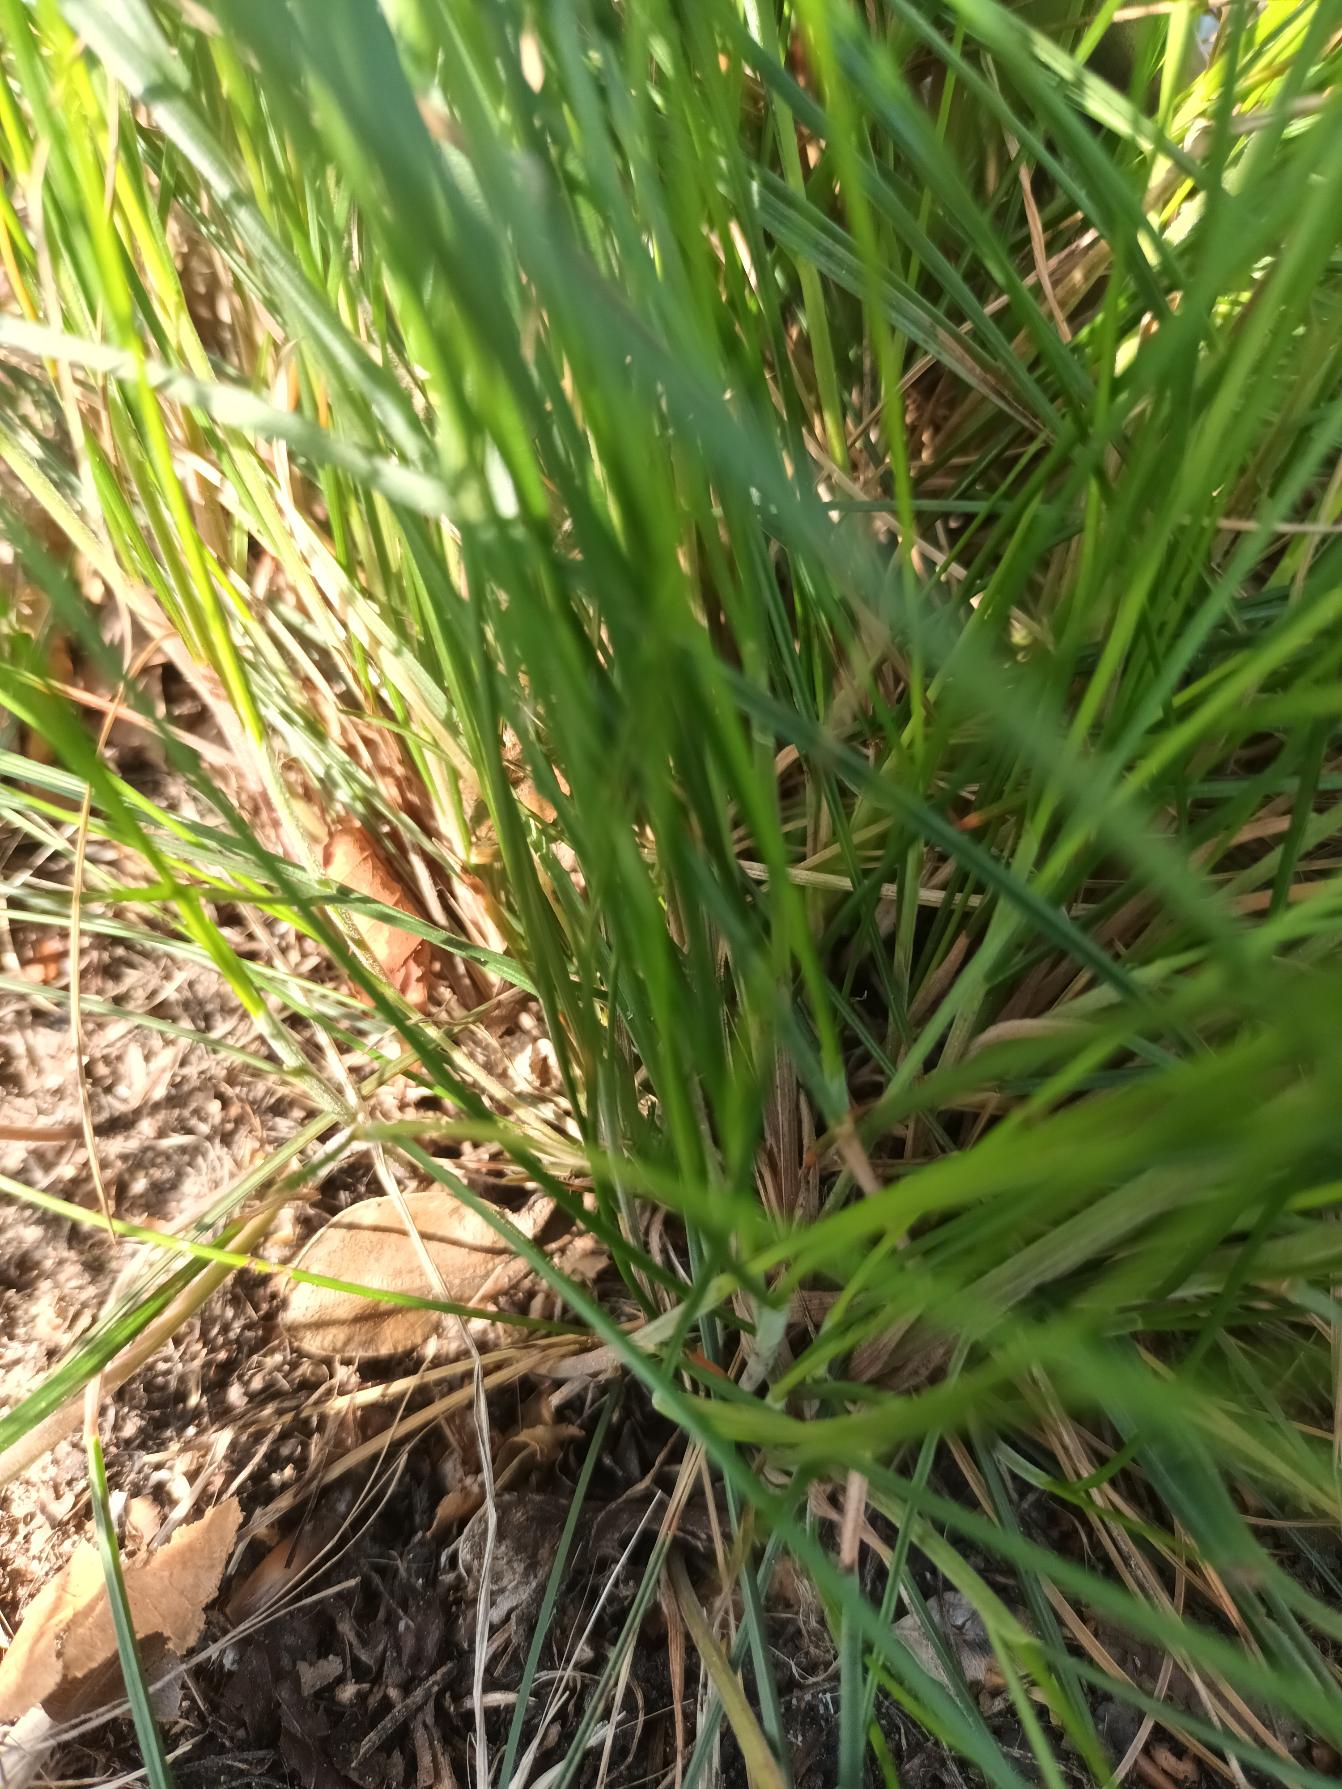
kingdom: Plantae
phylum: Tracheophyta
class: Liliopsida
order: Poales
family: Poaceae
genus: Festuca
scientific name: Festuca nigrescens
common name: Vej-svingel
